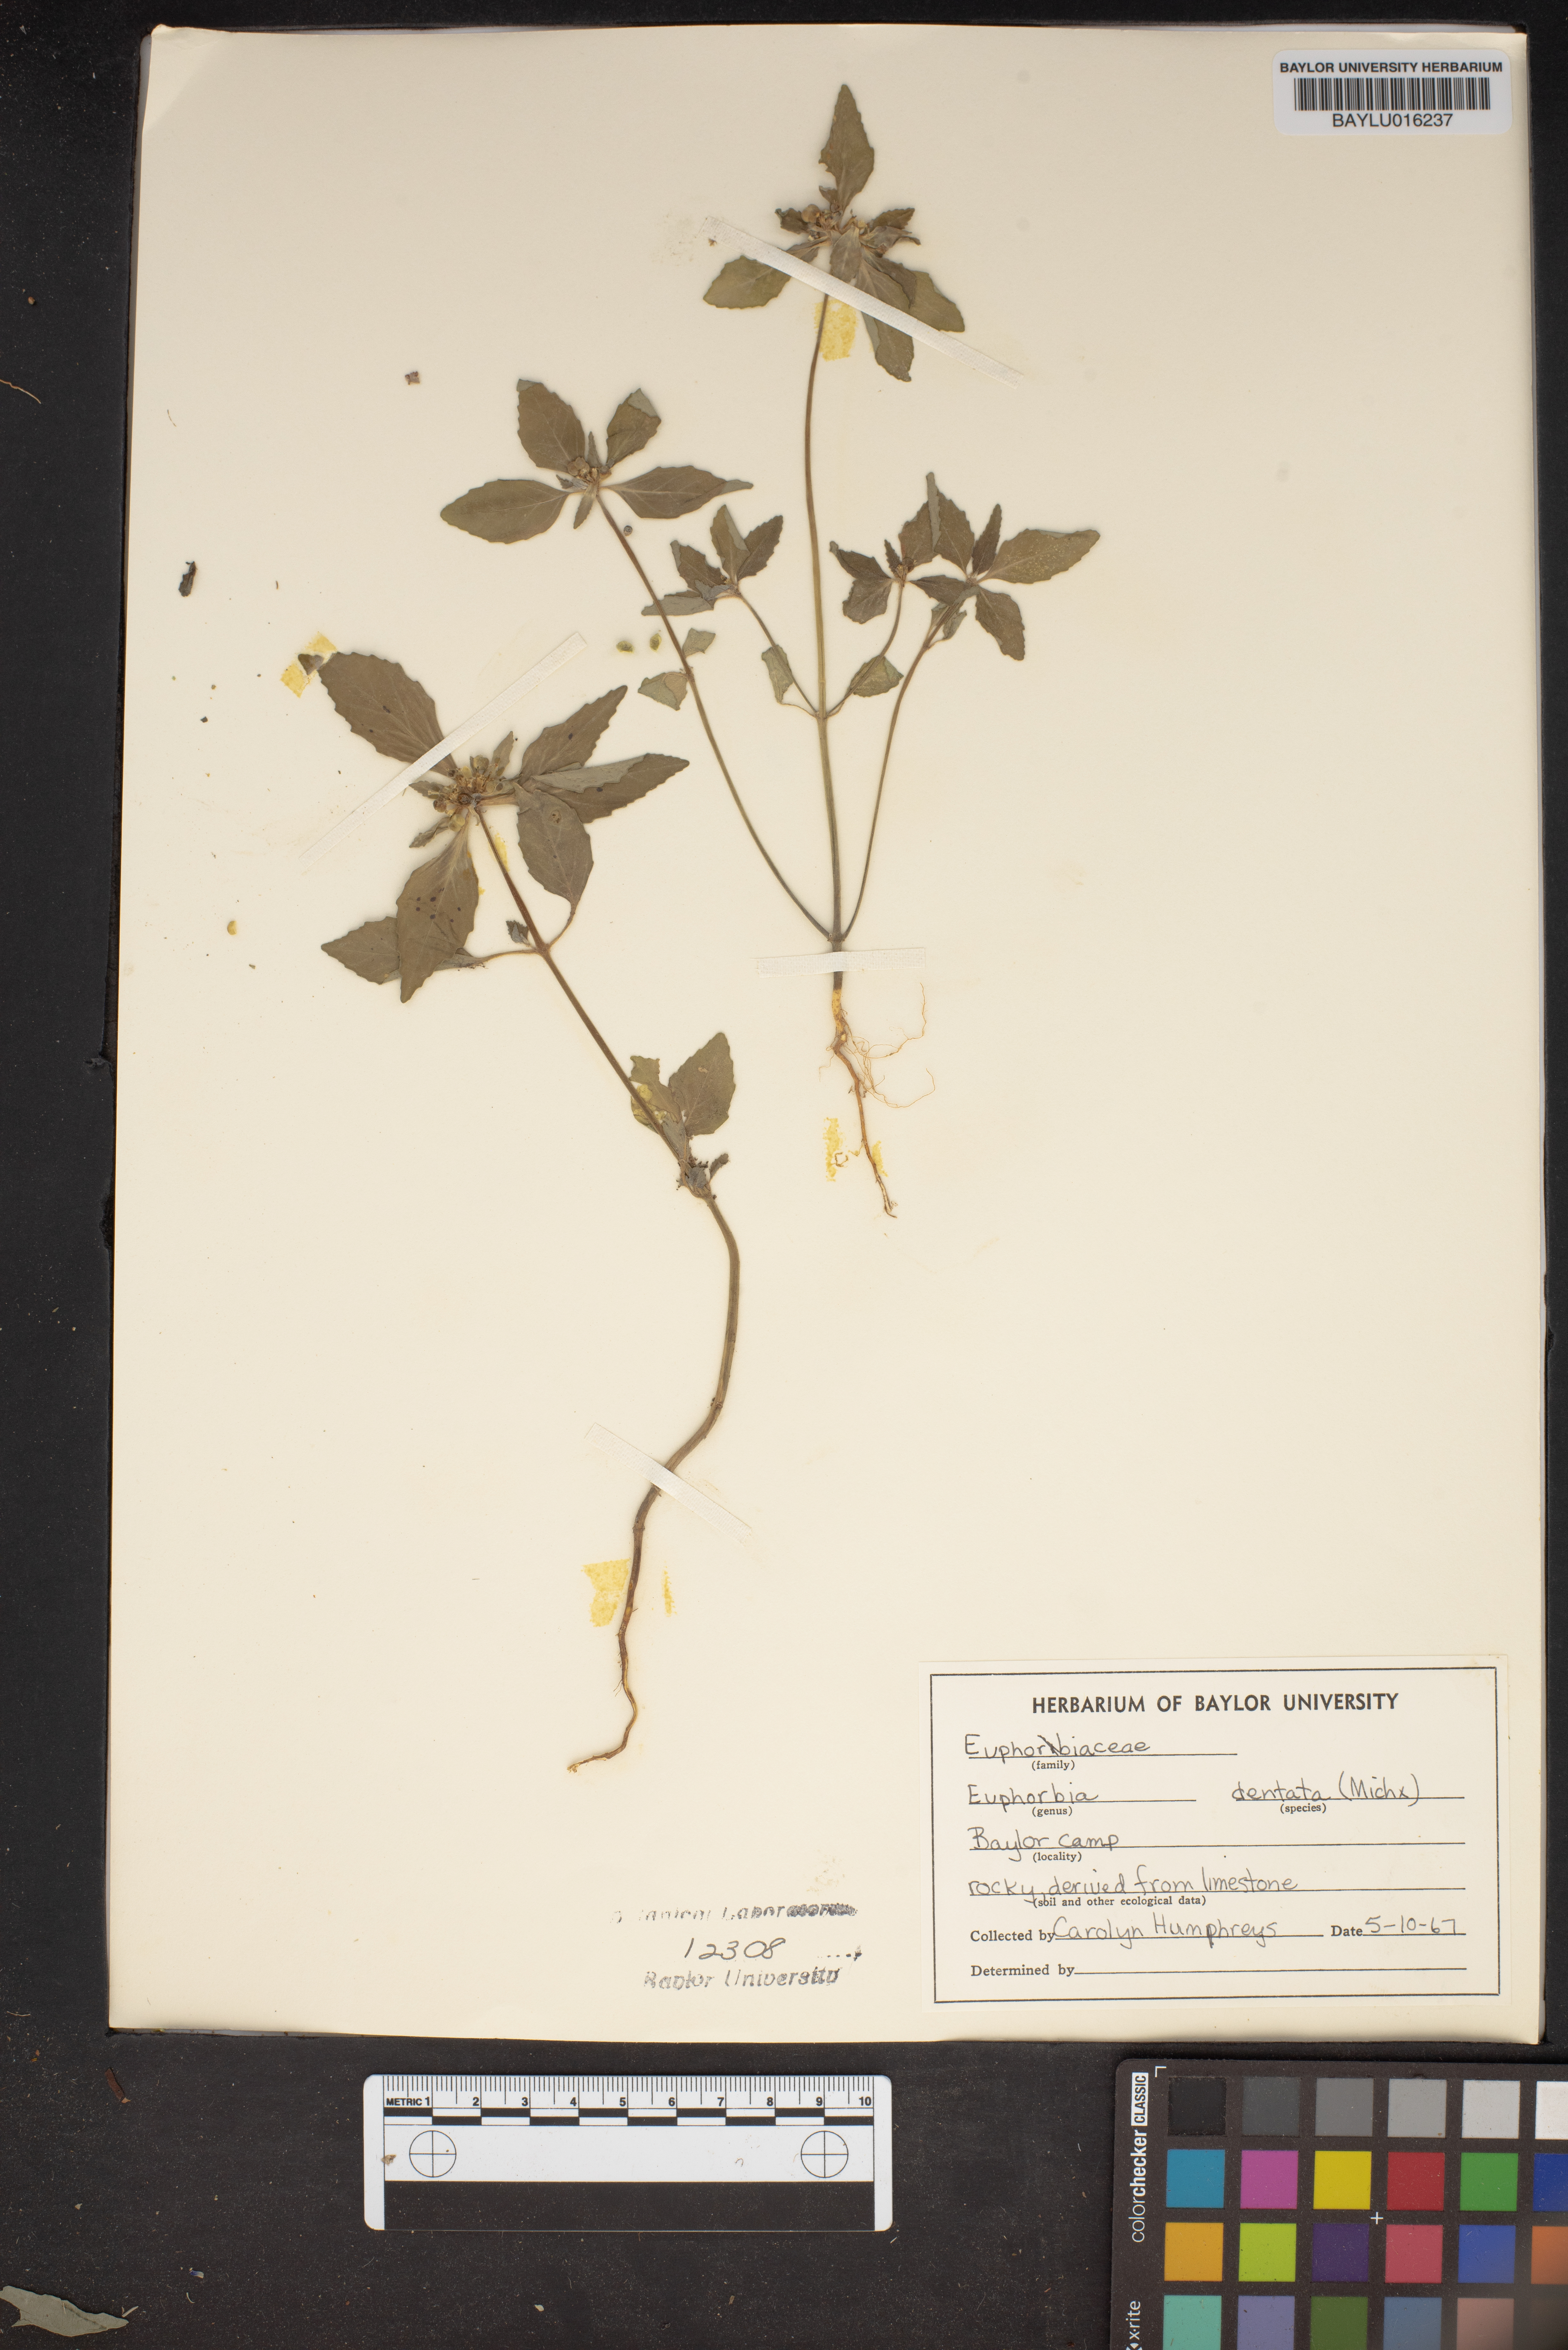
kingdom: Plantae
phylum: Tracheophyta
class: Magnoliopsida
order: Malpighiales
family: Euphorbiaceae
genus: Euphorbia
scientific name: Euphorbia dentata
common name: Dentate spurge
